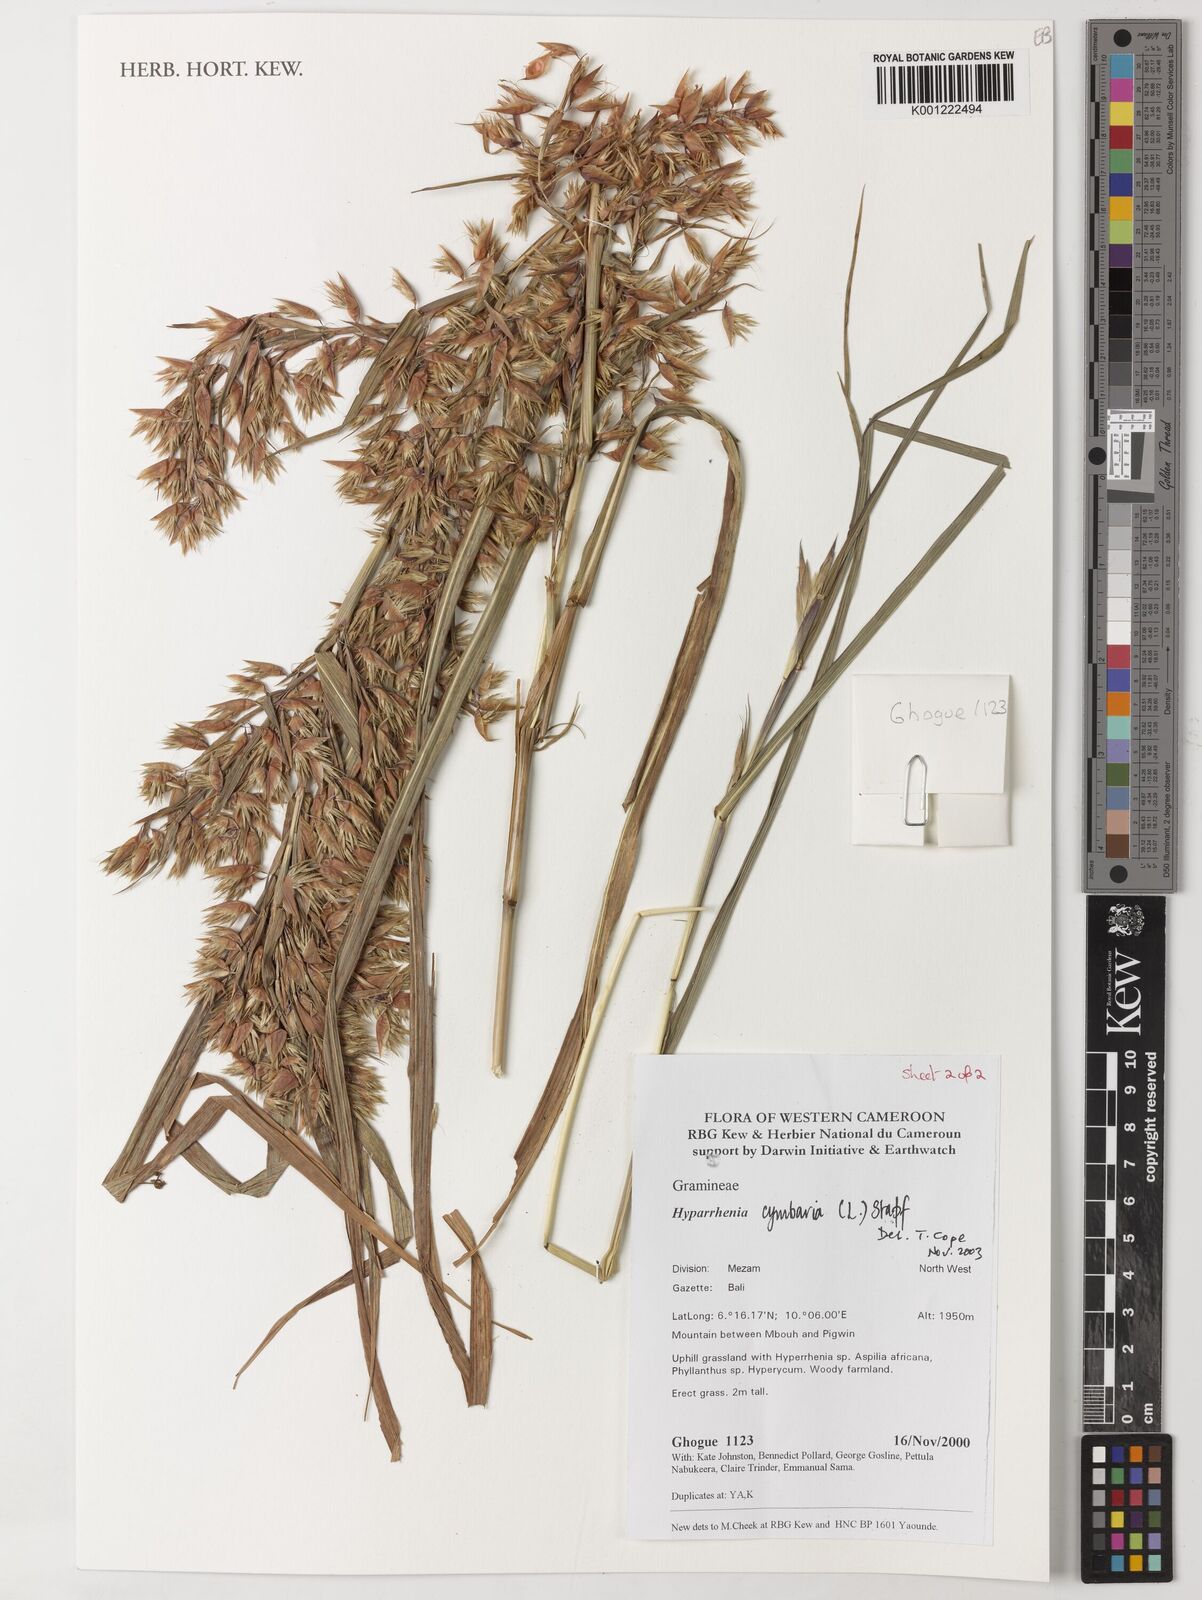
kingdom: Plantae
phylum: Tracheophyta
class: Liliopsida
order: Poales
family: Poaceae
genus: Hyparrhenia
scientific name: Hyparrhenia cymbaria
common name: Boat thatching grass
